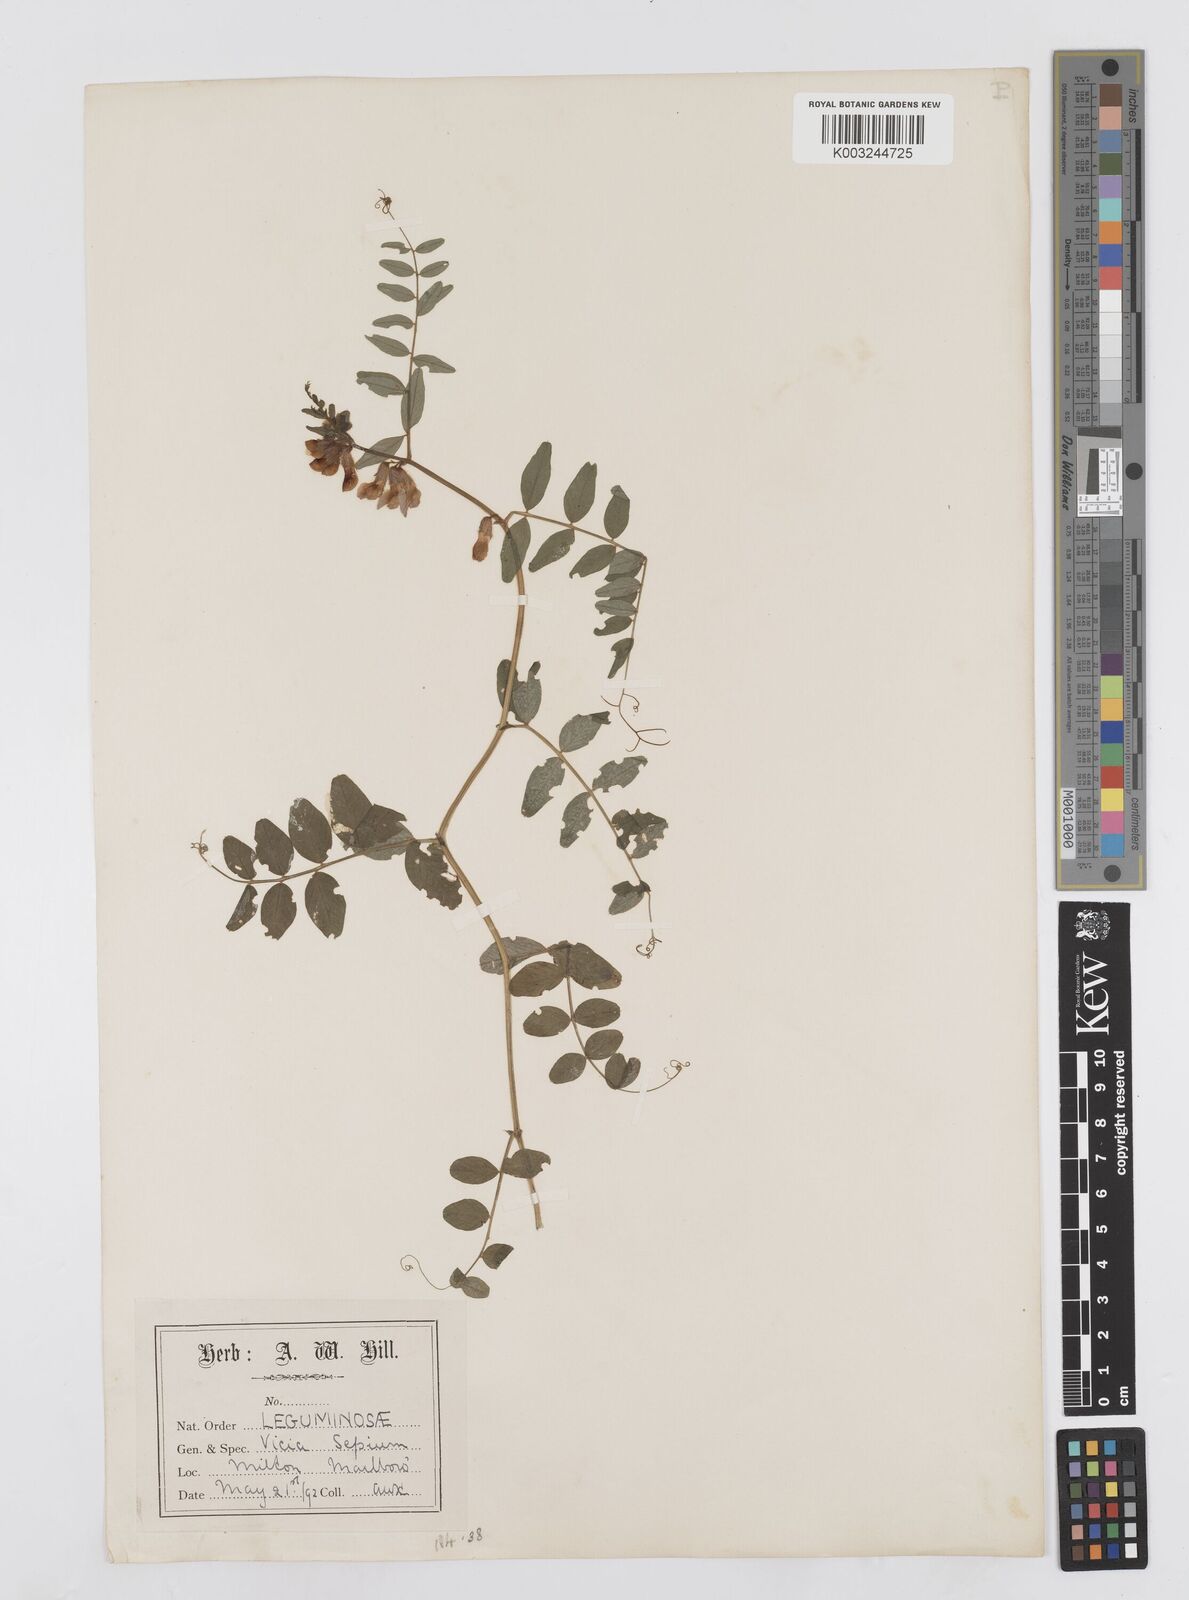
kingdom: Plantae
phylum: Tracheophyta
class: Magnoliopsida
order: Fabales
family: Fabaceae
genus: Vicia
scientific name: Vicia sepium
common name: Bush vetch
